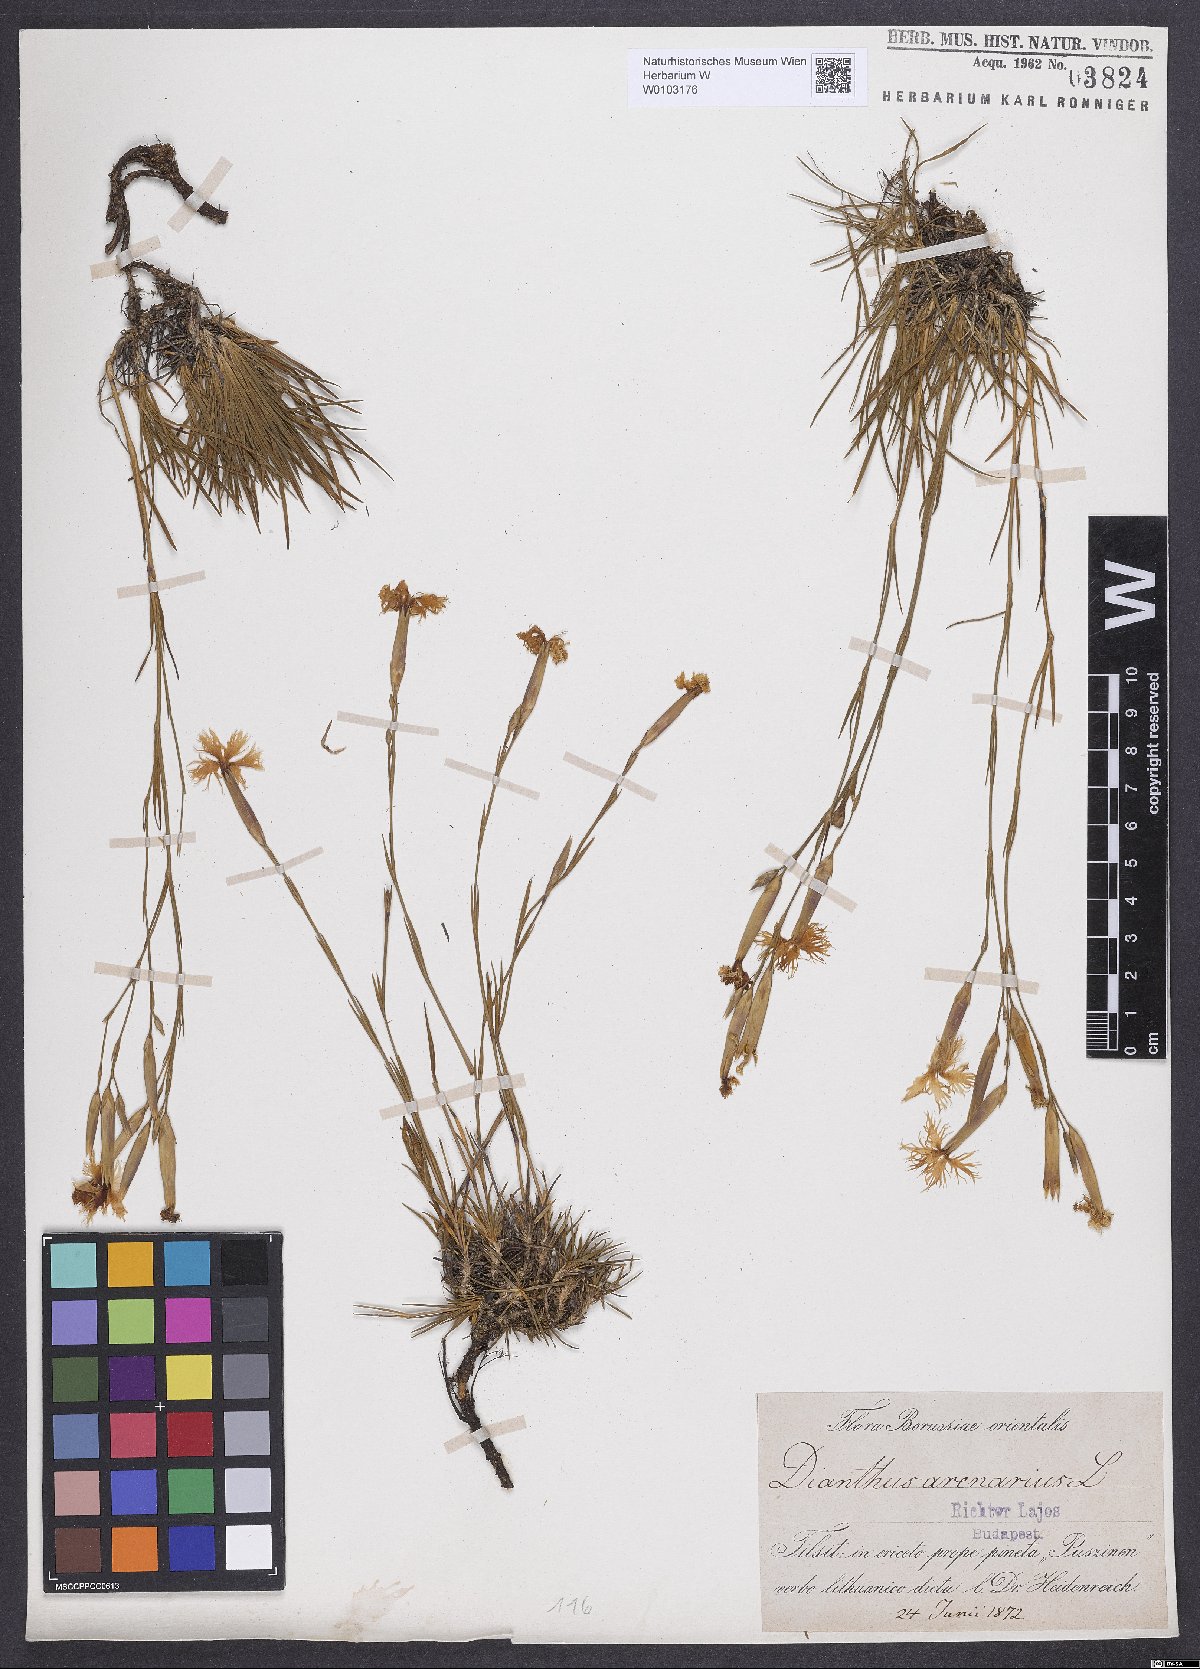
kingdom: Plantae
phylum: Tracheophyta
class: Magnoliopsida
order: Caryophyllales
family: Caryophyllaceae
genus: Dianthus
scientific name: Dianthus arenarius
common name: Stone pink
